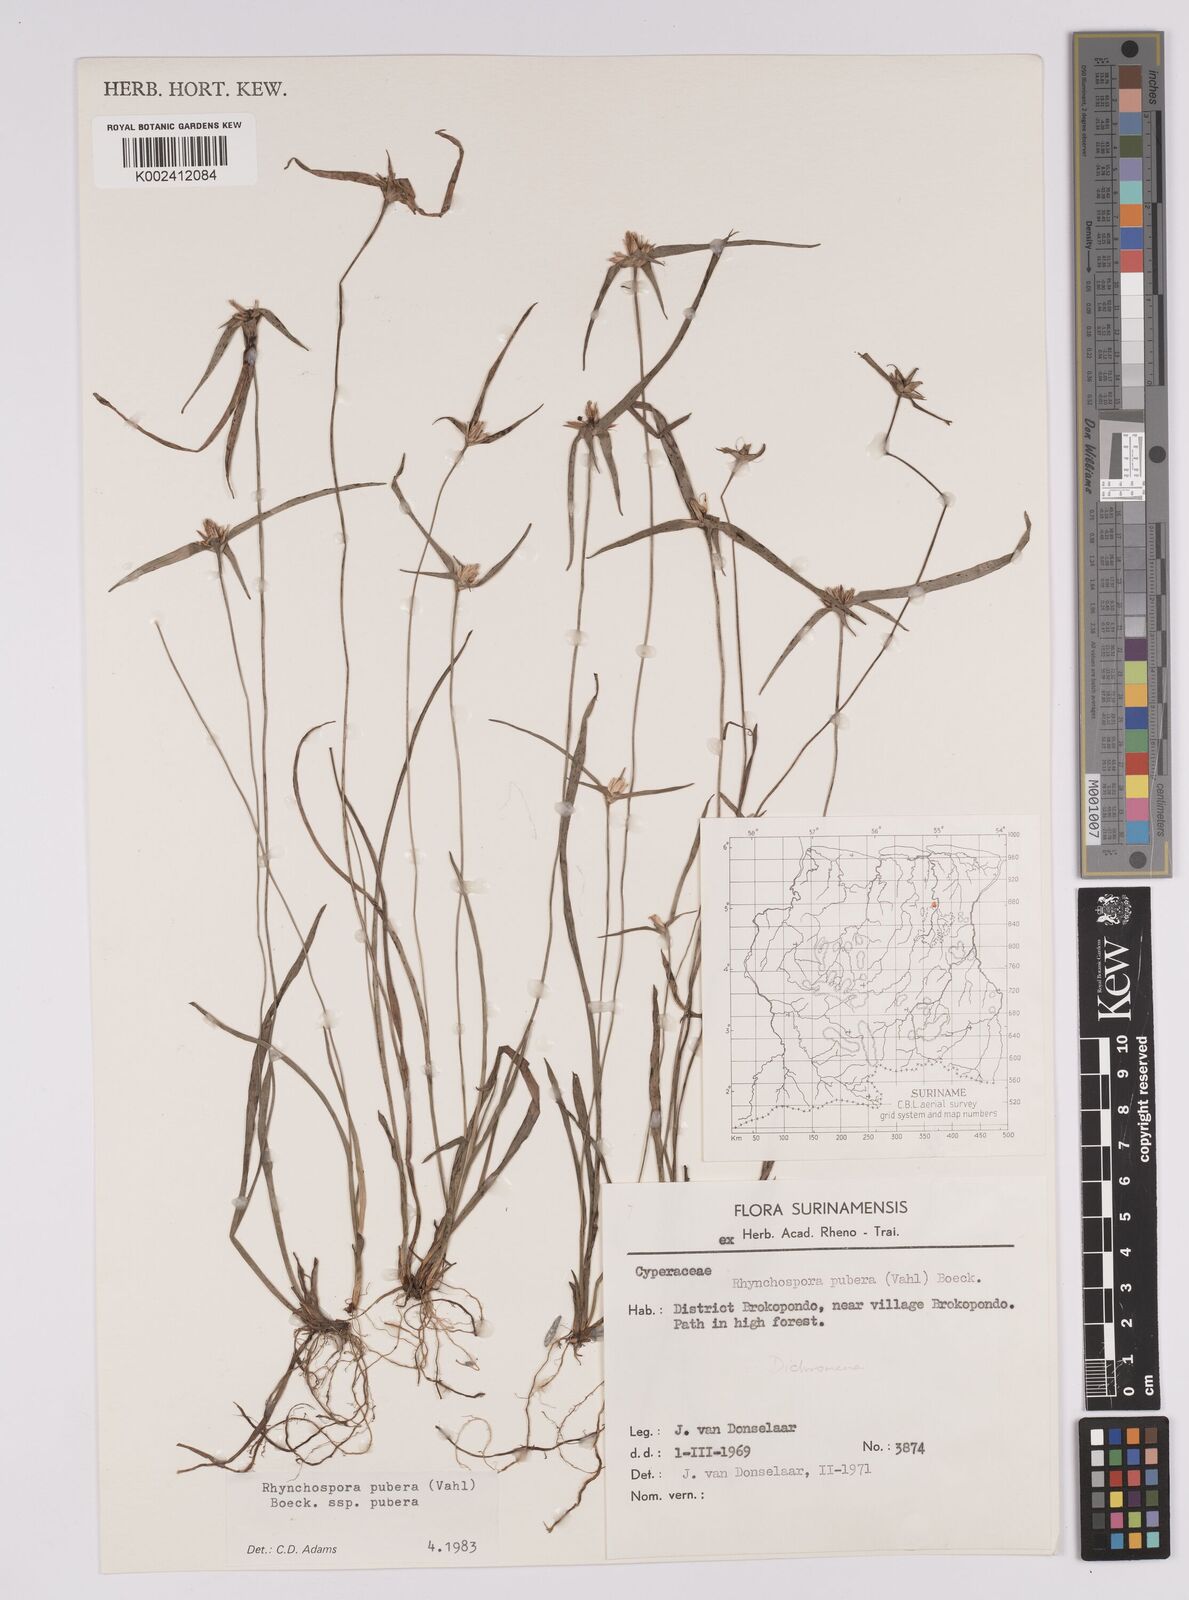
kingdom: Plantae
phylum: Tracheophyta
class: Liliopsida
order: Poales
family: Cyperaceae
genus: Rhynchospora
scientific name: Rhynchospora pubera
